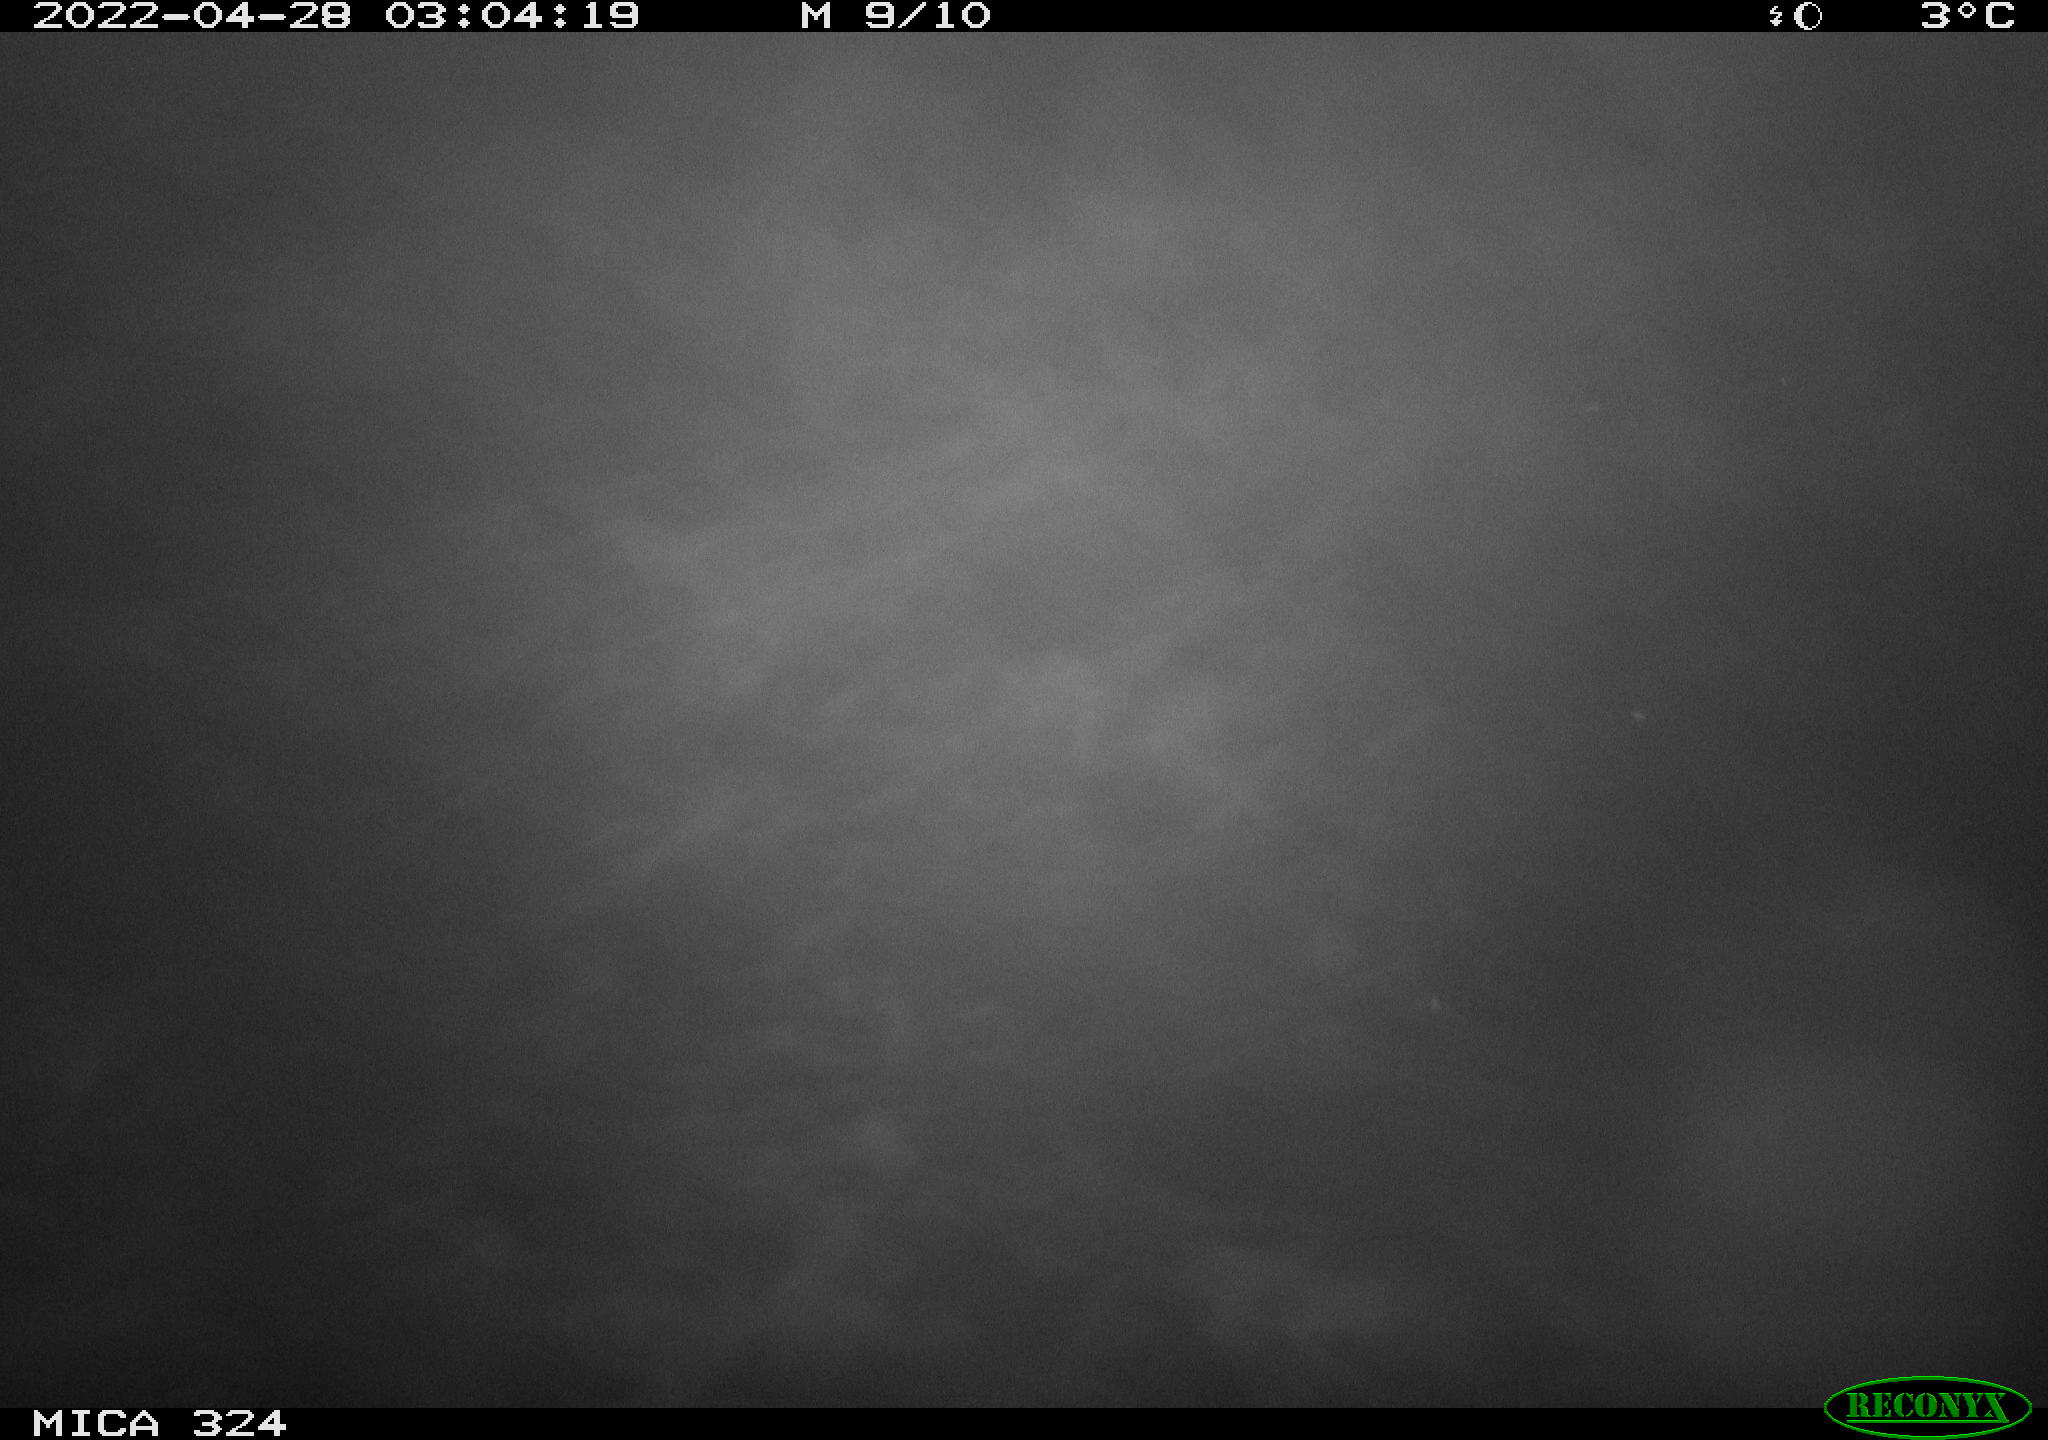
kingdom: Animalia
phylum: Chordata
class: Mammalia
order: Rodentia
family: Cricetidae
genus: Ondatra
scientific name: Ondatra zibethicus
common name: Muskrat
